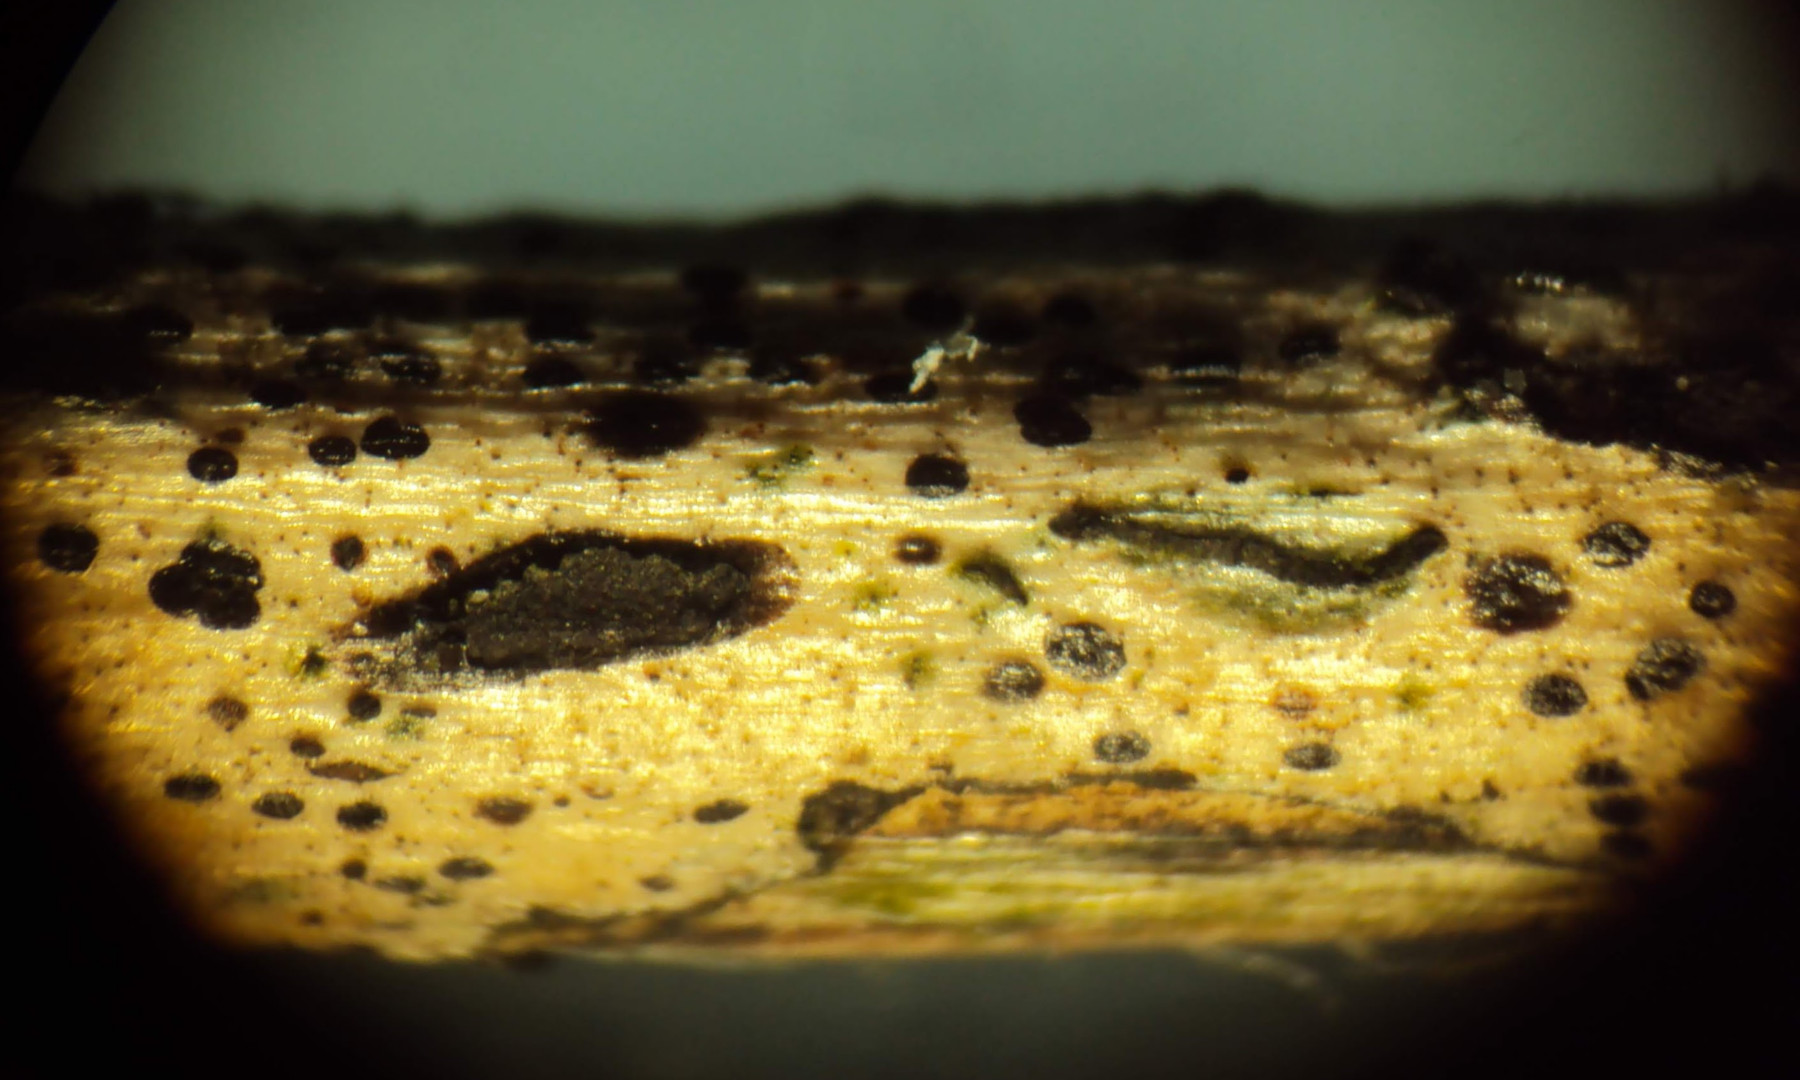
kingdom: Fungi
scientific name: Fungi
